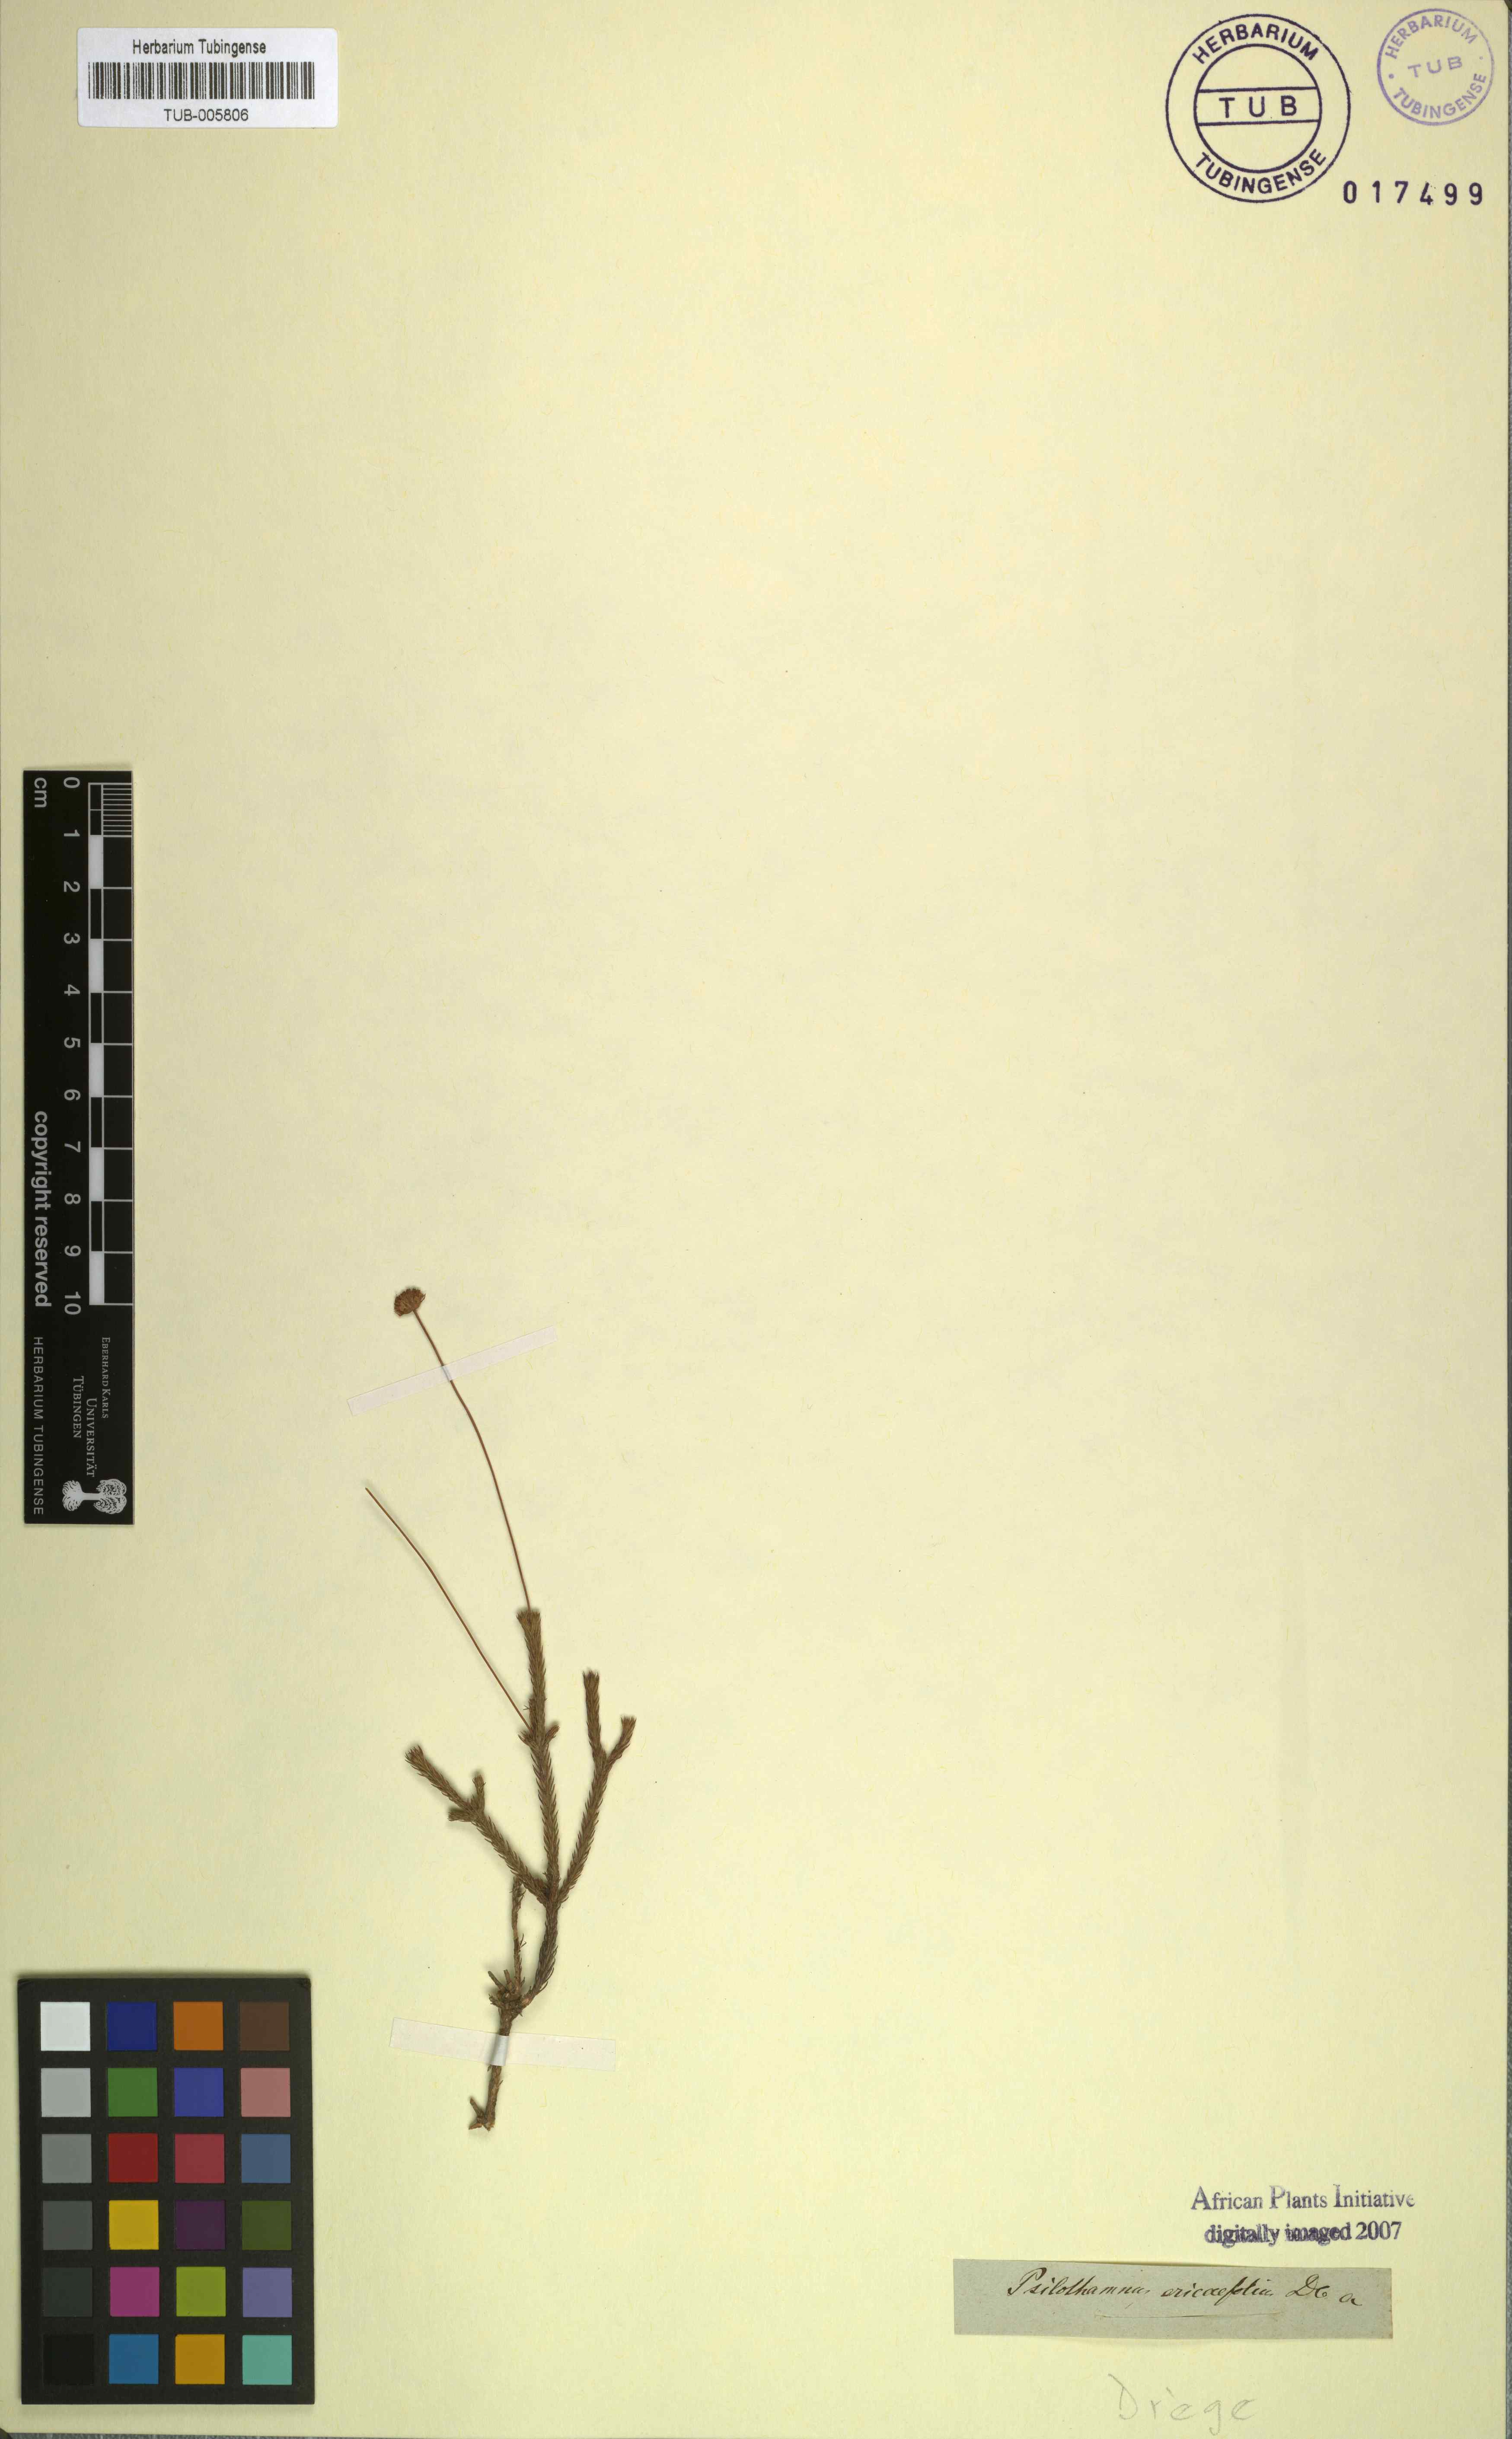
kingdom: Plantae
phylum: Tracheophyta
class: Magnoliopsida
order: Asterales
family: Asteraceae
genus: Euryops
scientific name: Euryops ericoides
